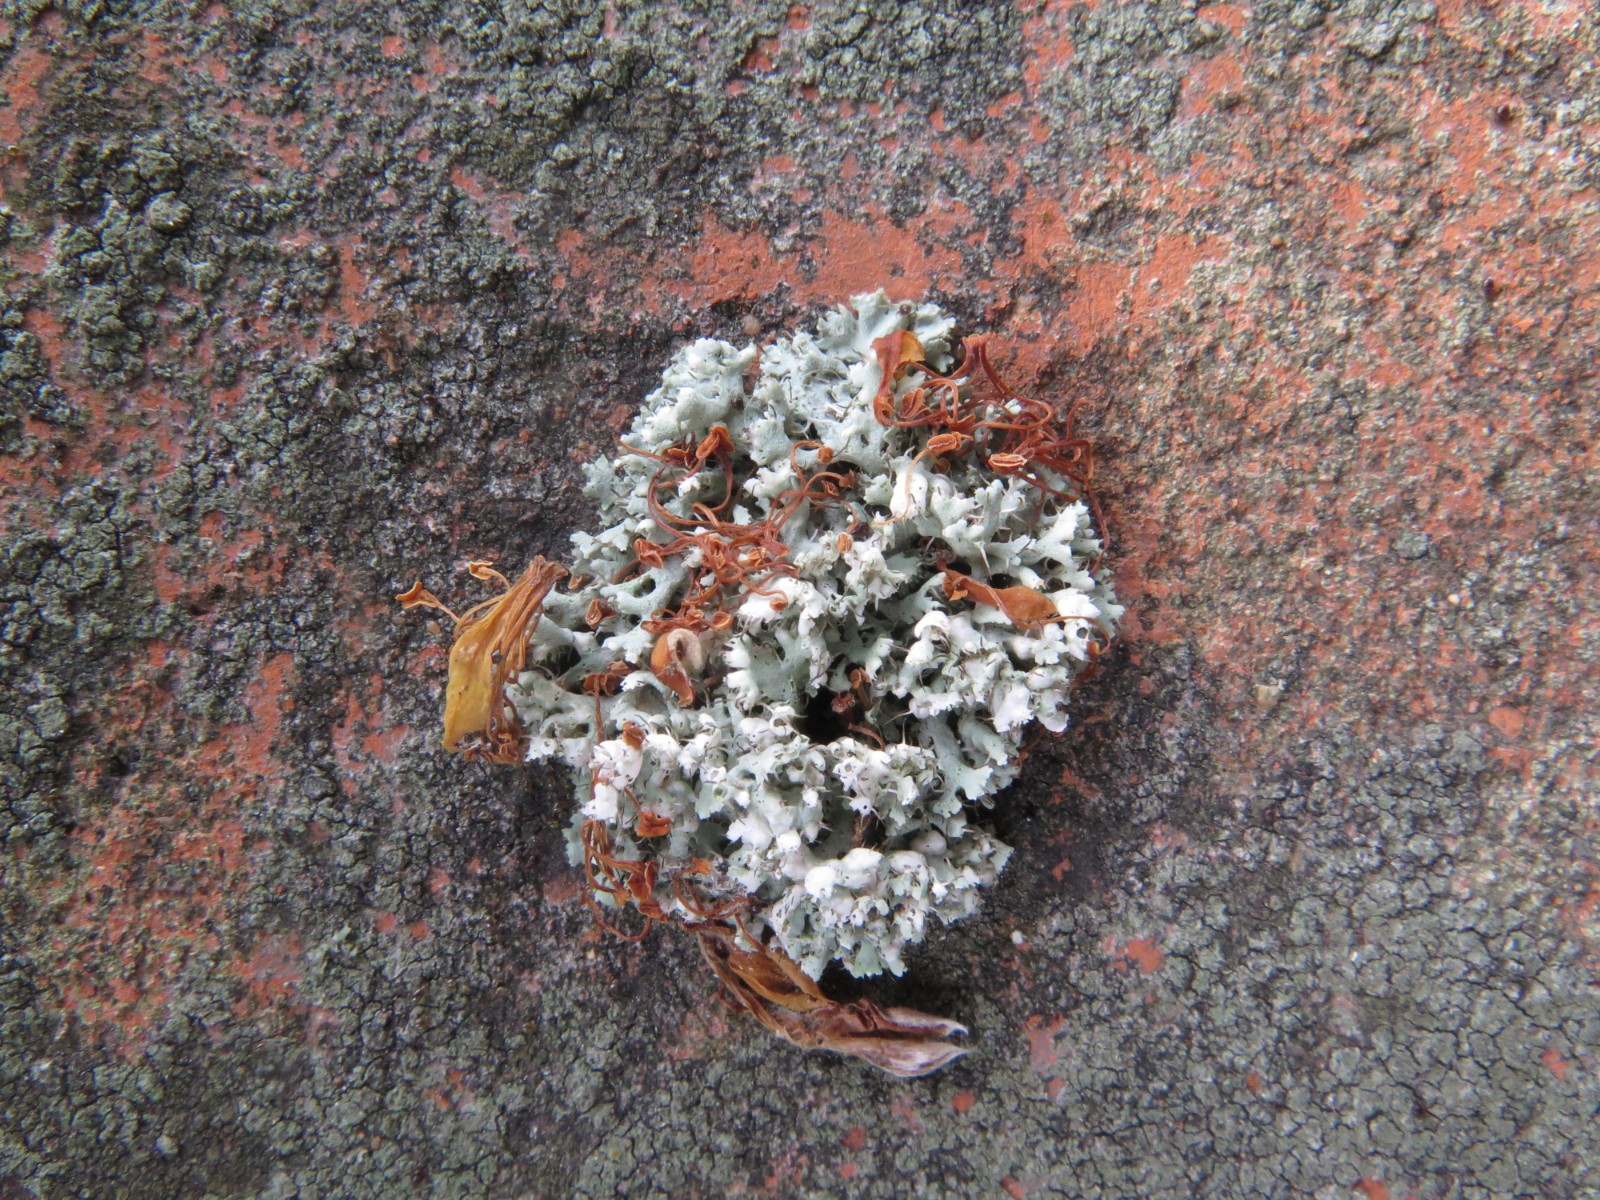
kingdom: Fungi
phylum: Ascomycota
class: Lecanoromycetes
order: Caliciales
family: Physciaceae
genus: Physcia
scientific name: Physcia adscendens
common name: hætte-rosetlav
